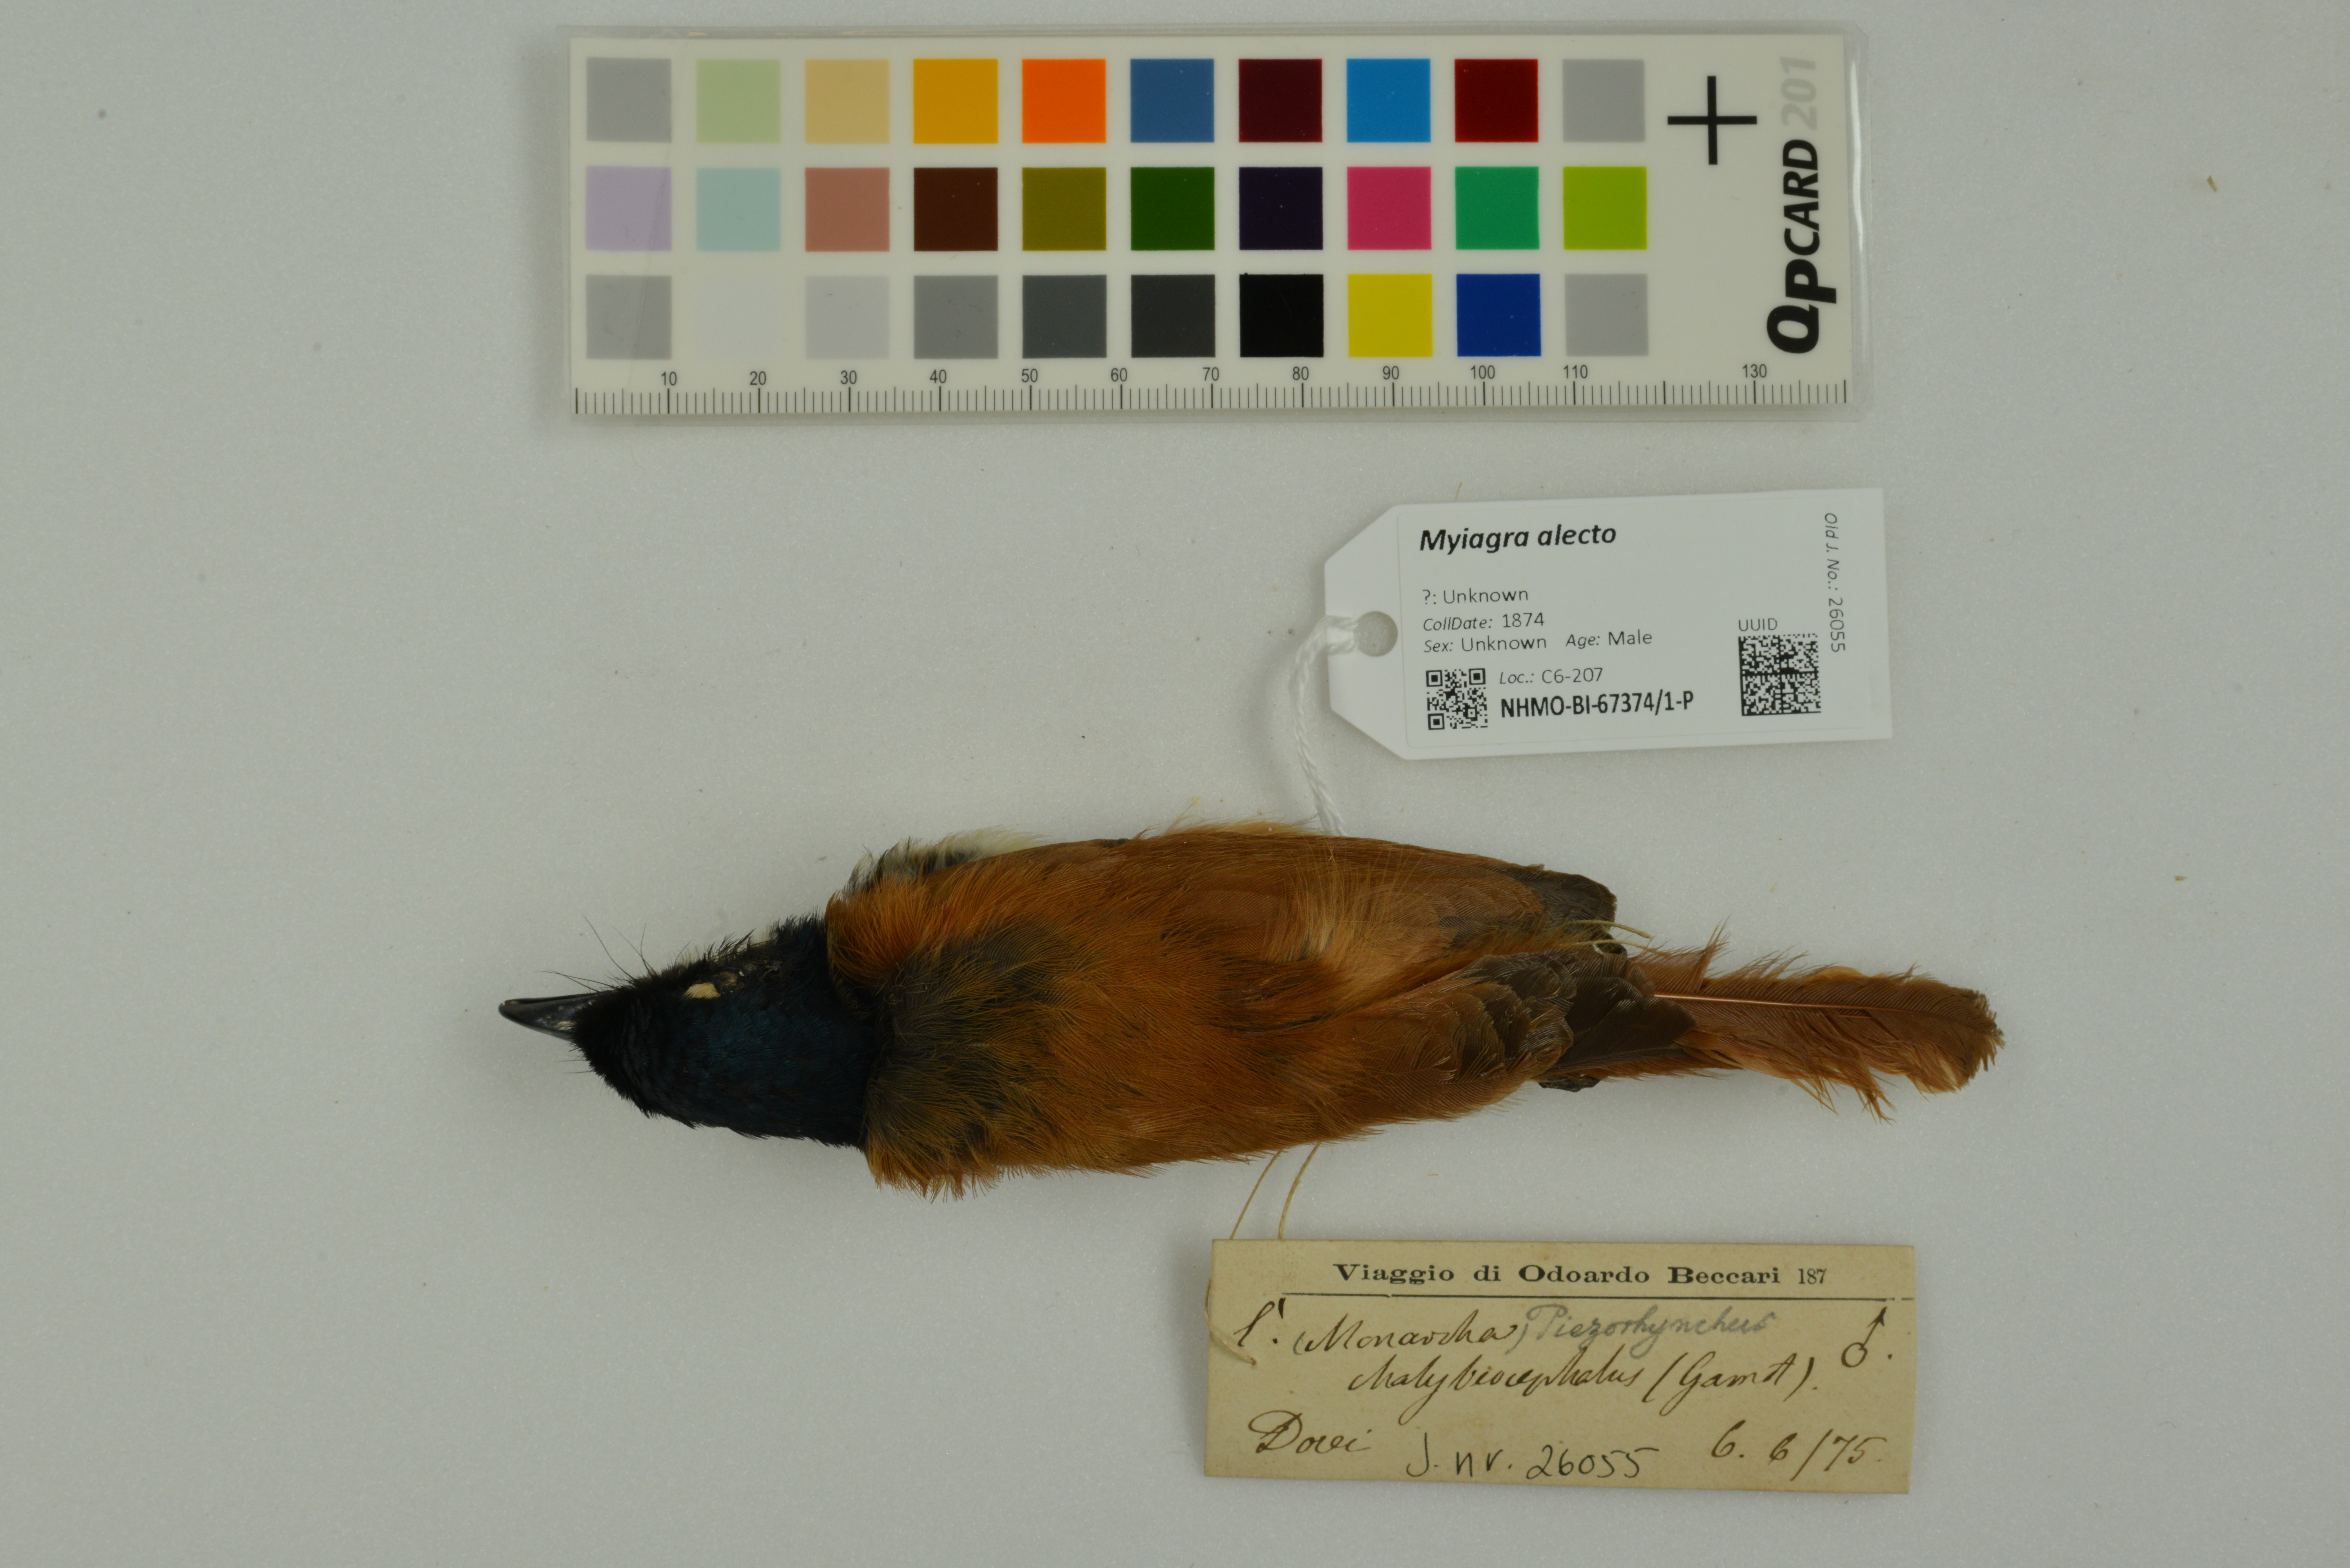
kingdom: Animalia
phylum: Chordata
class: Aves
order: Passeriformes
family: Monarchidae
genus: Myiagra
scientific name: Myiagra alecto
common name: Shining flycatcher
